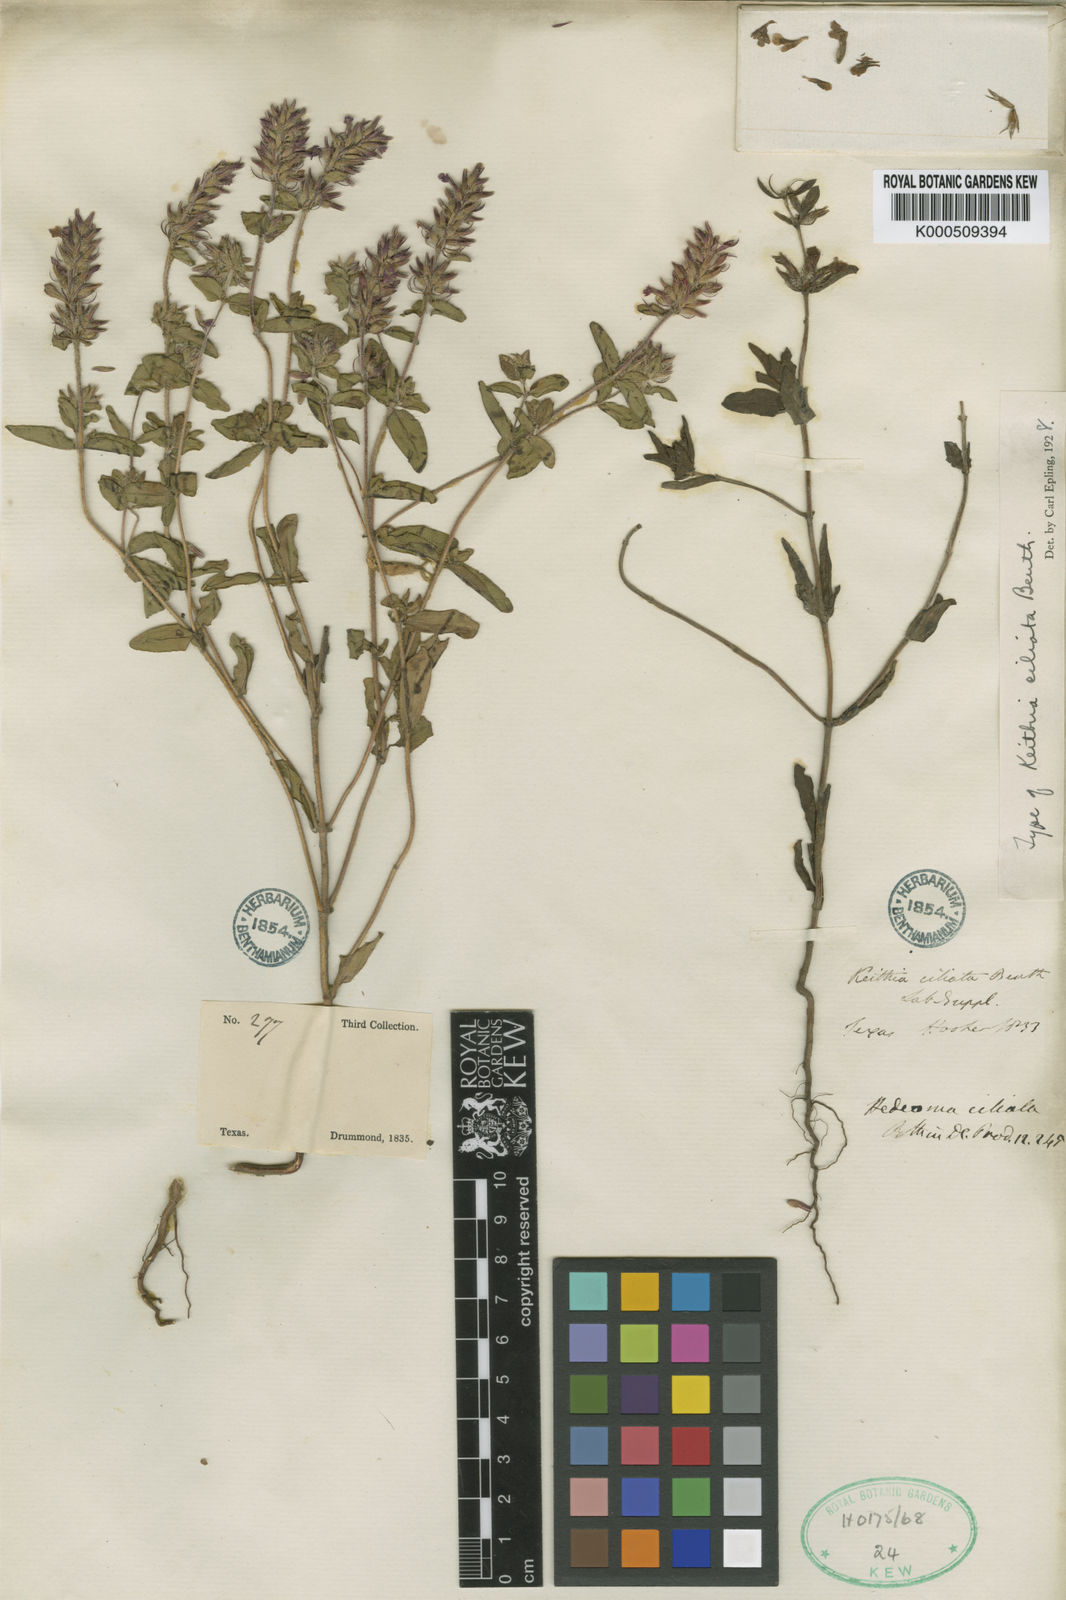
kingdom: Plantae
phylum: Tracheophyta
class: Magnoliopsida
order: Lamiales
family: Lamiaceae
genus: Rhododon
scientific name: Rhododon ciliatus
